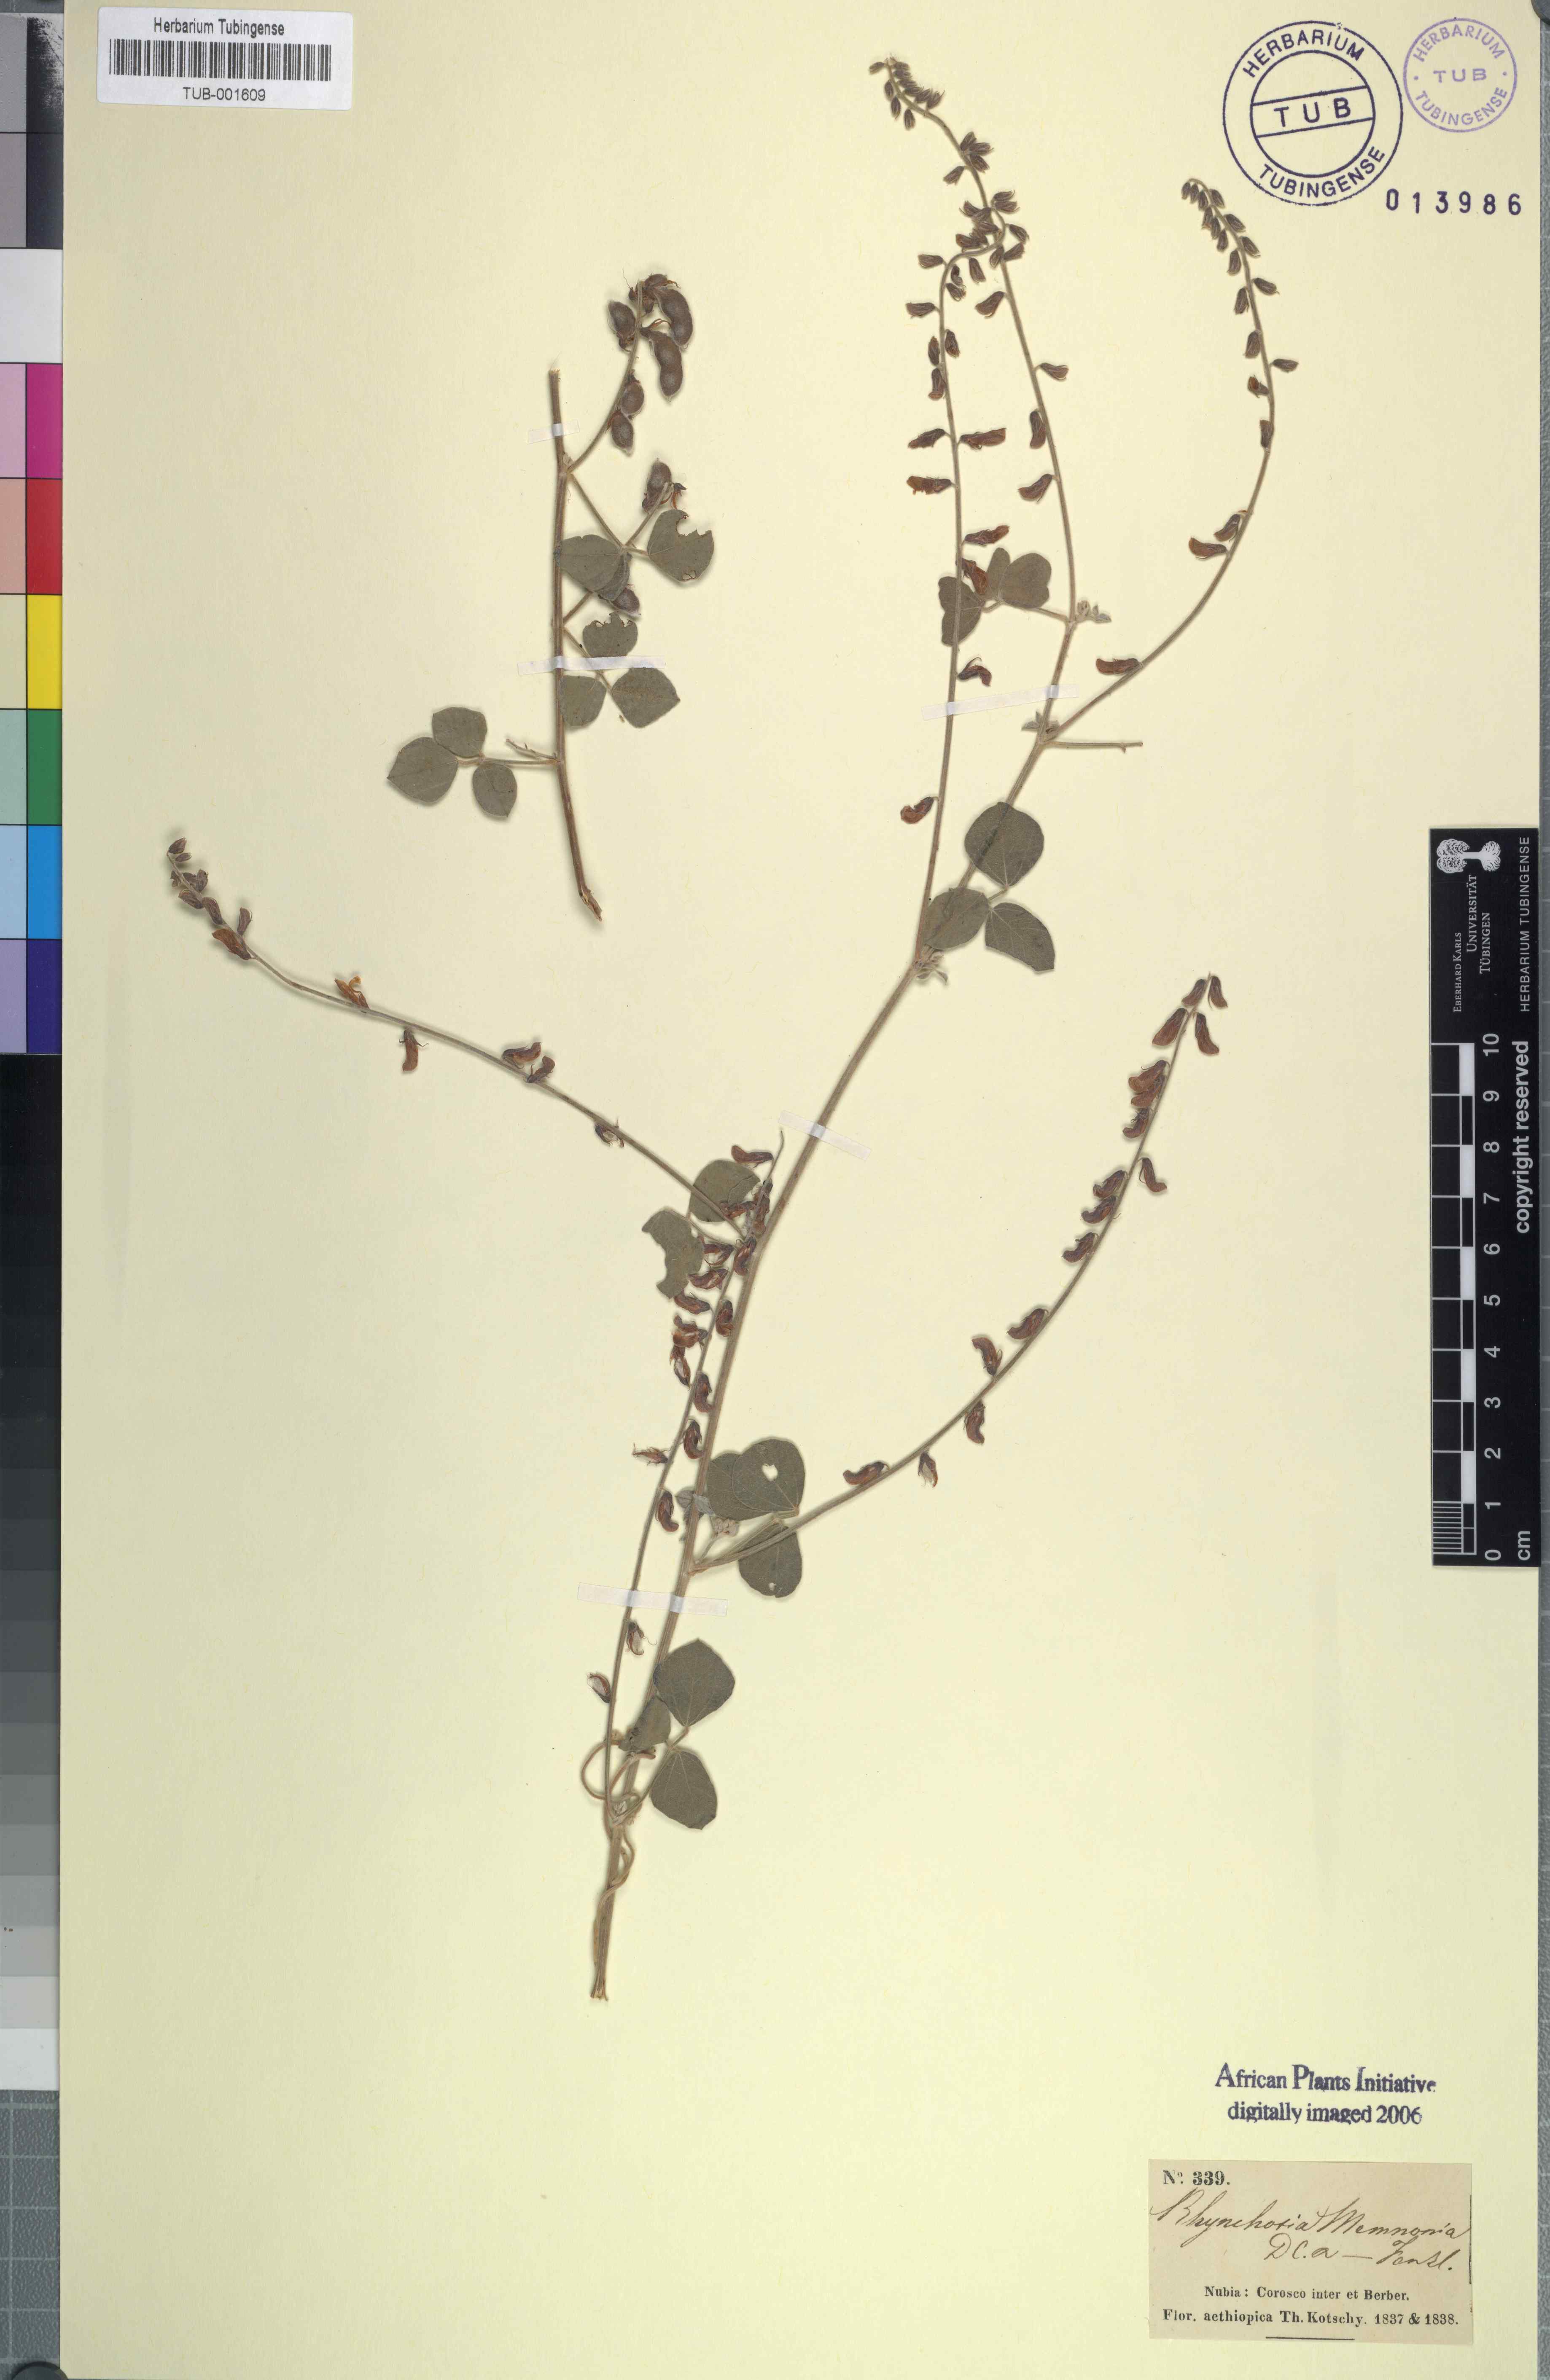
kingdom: Plantae
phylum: Tracheophyta
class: Magnoliopsida
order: Fabales
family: Fabaceae
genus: Rhynchosia
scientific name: Rhynchosia minima
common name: Least snoutbean
